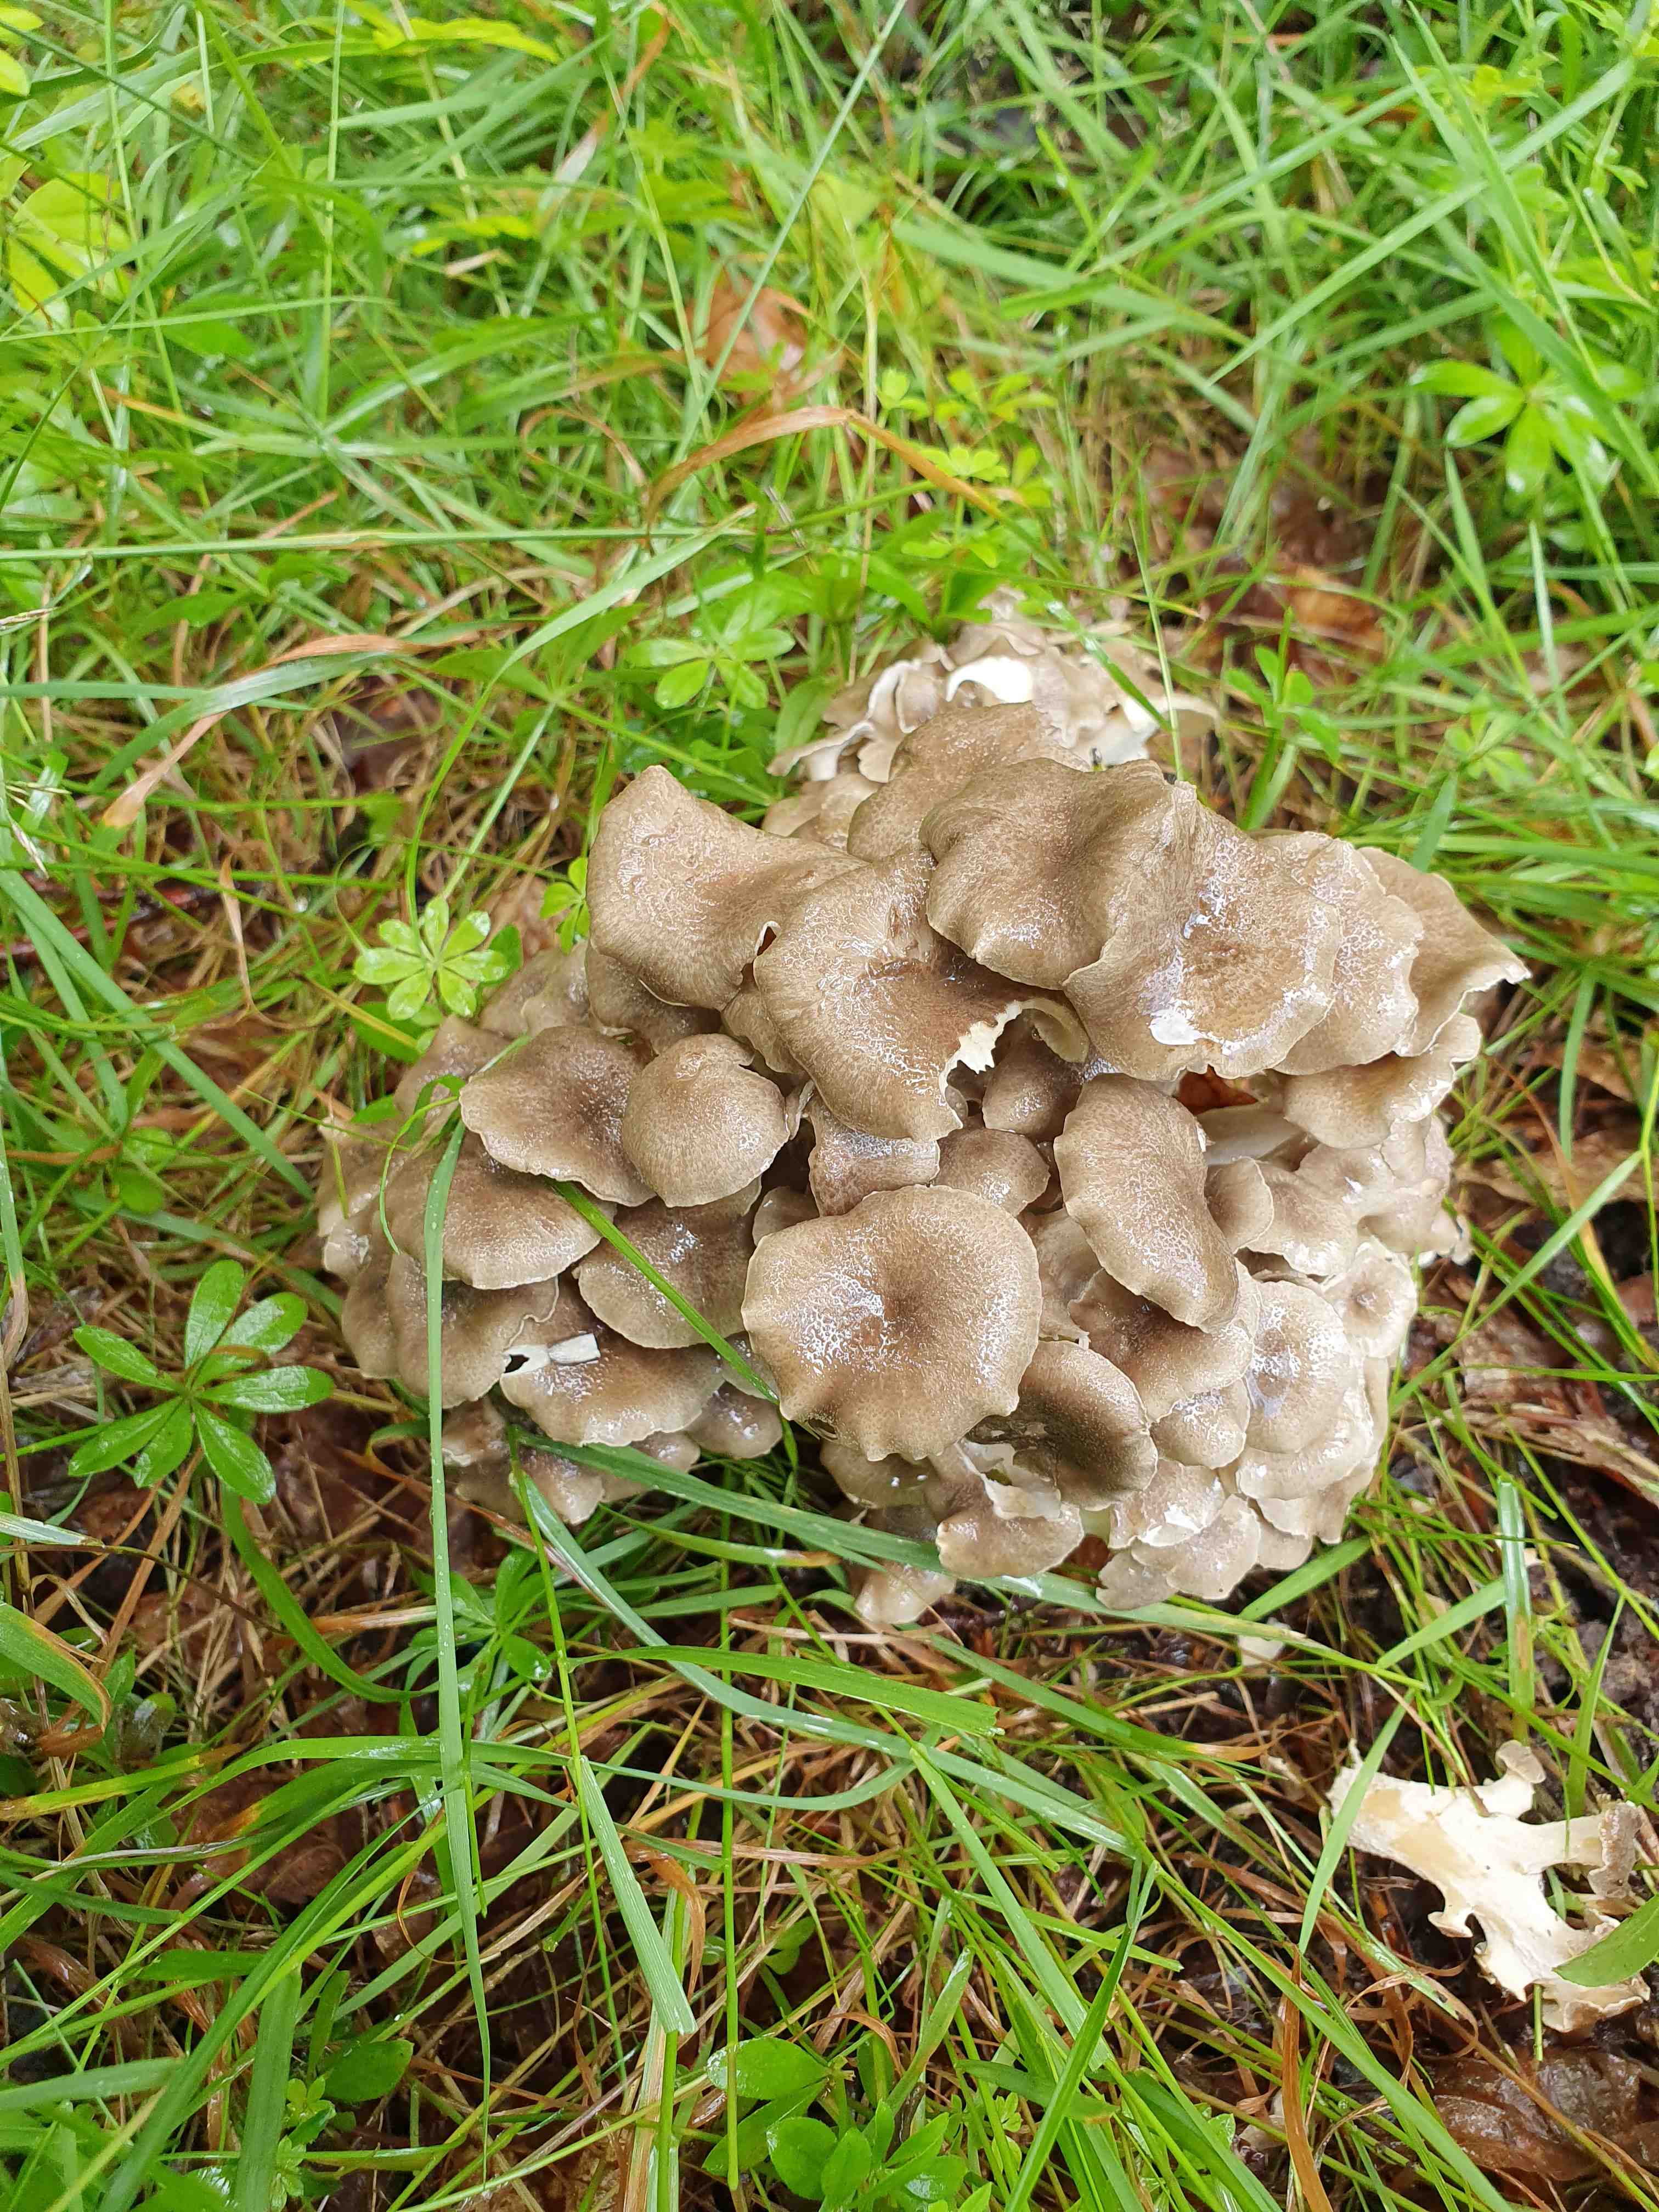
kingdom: Fungi
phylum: Basidiomycota
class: Agaricomycetes
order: Polyporales
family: Polyporaceae
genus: Polyporus
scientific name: Polyporus umbellatus
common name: skærmformet stilkporesvamp
